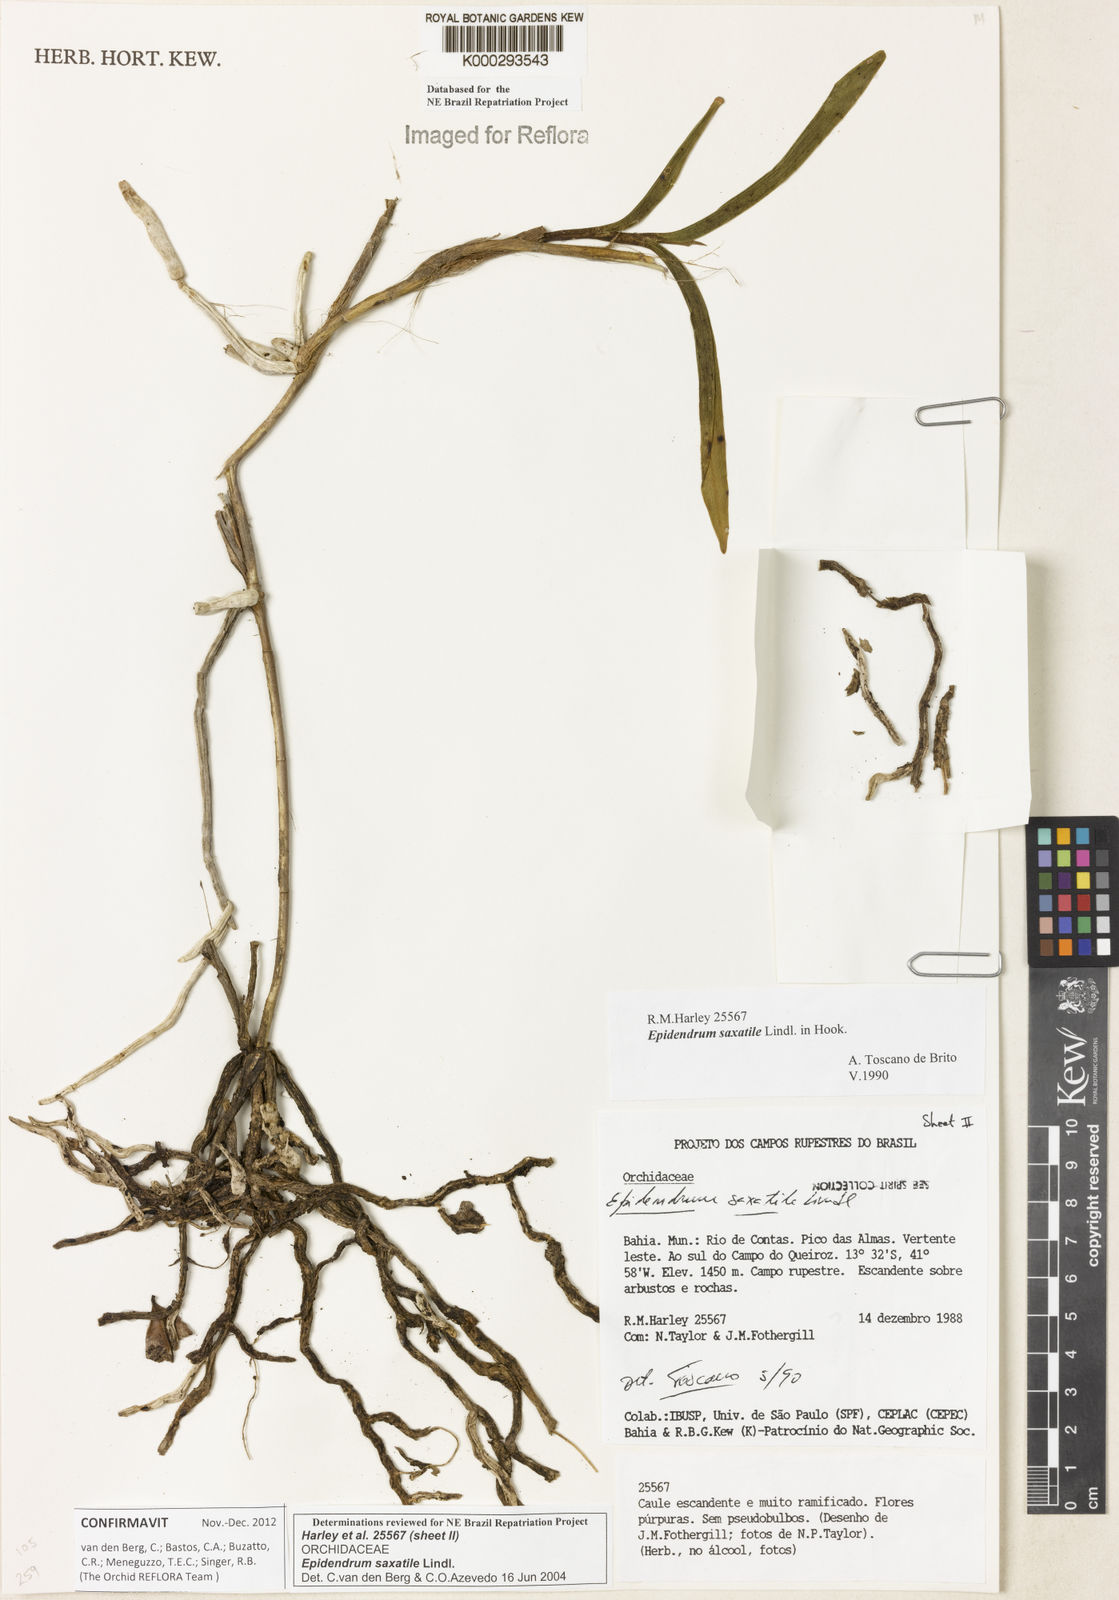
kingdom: Plantae
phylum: Tracheophyta
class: Liliopsida
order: Asparagales
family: Orchidaceae
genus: Epidendrum
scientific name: Epidendrum saxatile
